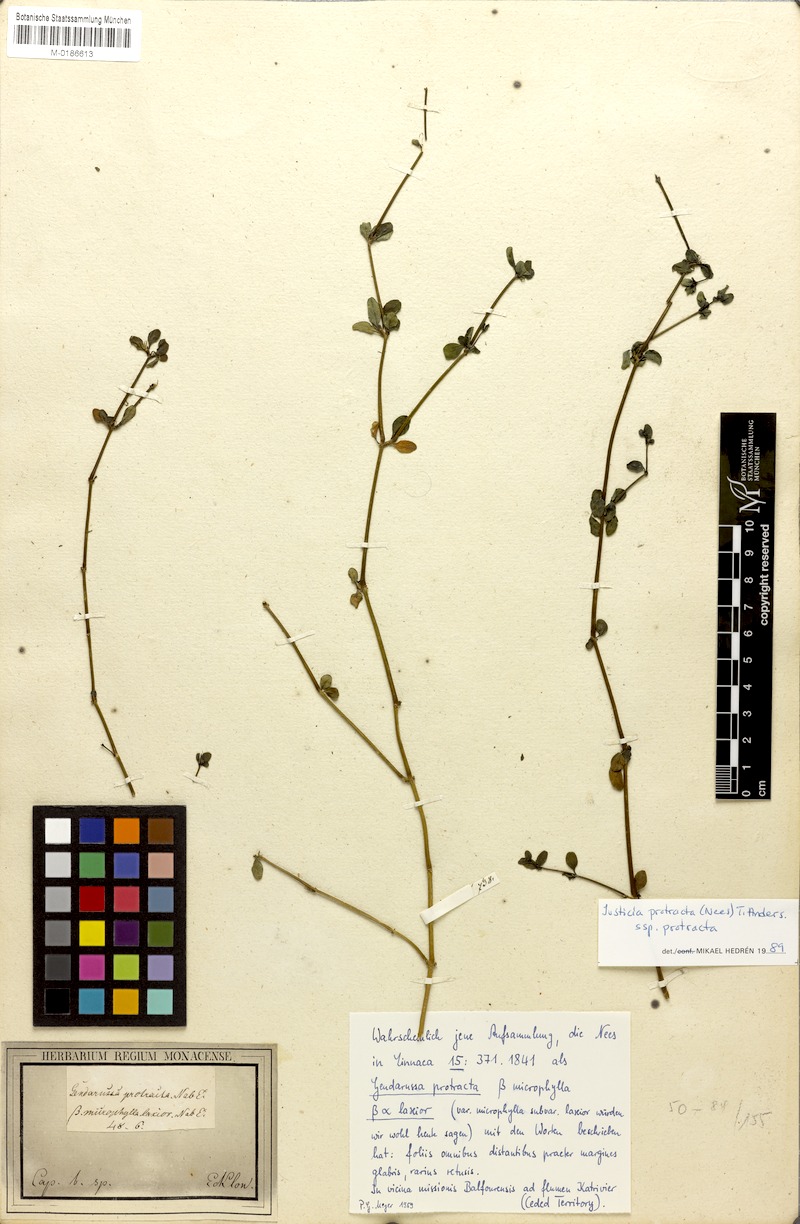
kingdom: Plantae
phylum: Tracheophyta
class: Magnoliopsida
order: Lamiales
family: Acanthaceae
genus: Justicia
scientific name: Justicia protracta
